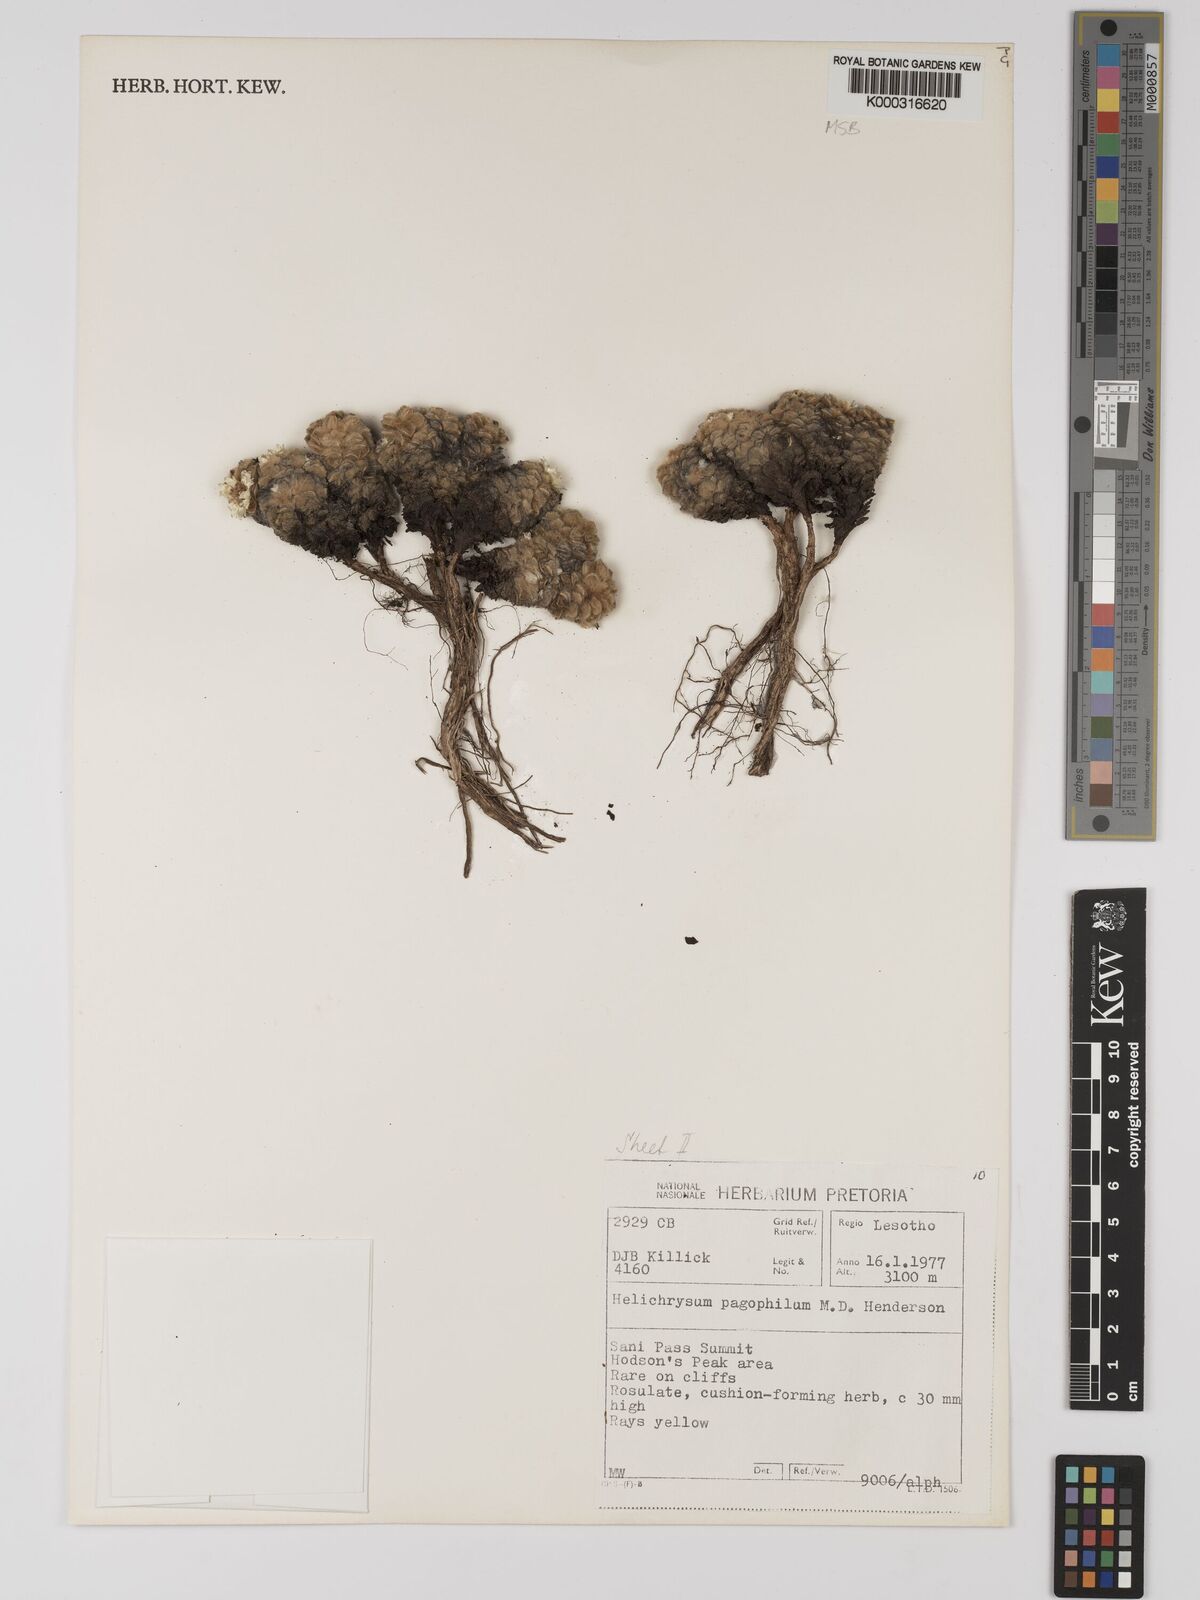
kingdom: Plantae
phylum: Tracheophyta
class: Magnoliopsida
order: Asterales
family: Asteraceae
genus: Helichrysum
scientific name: Helichrysum pagophilum
